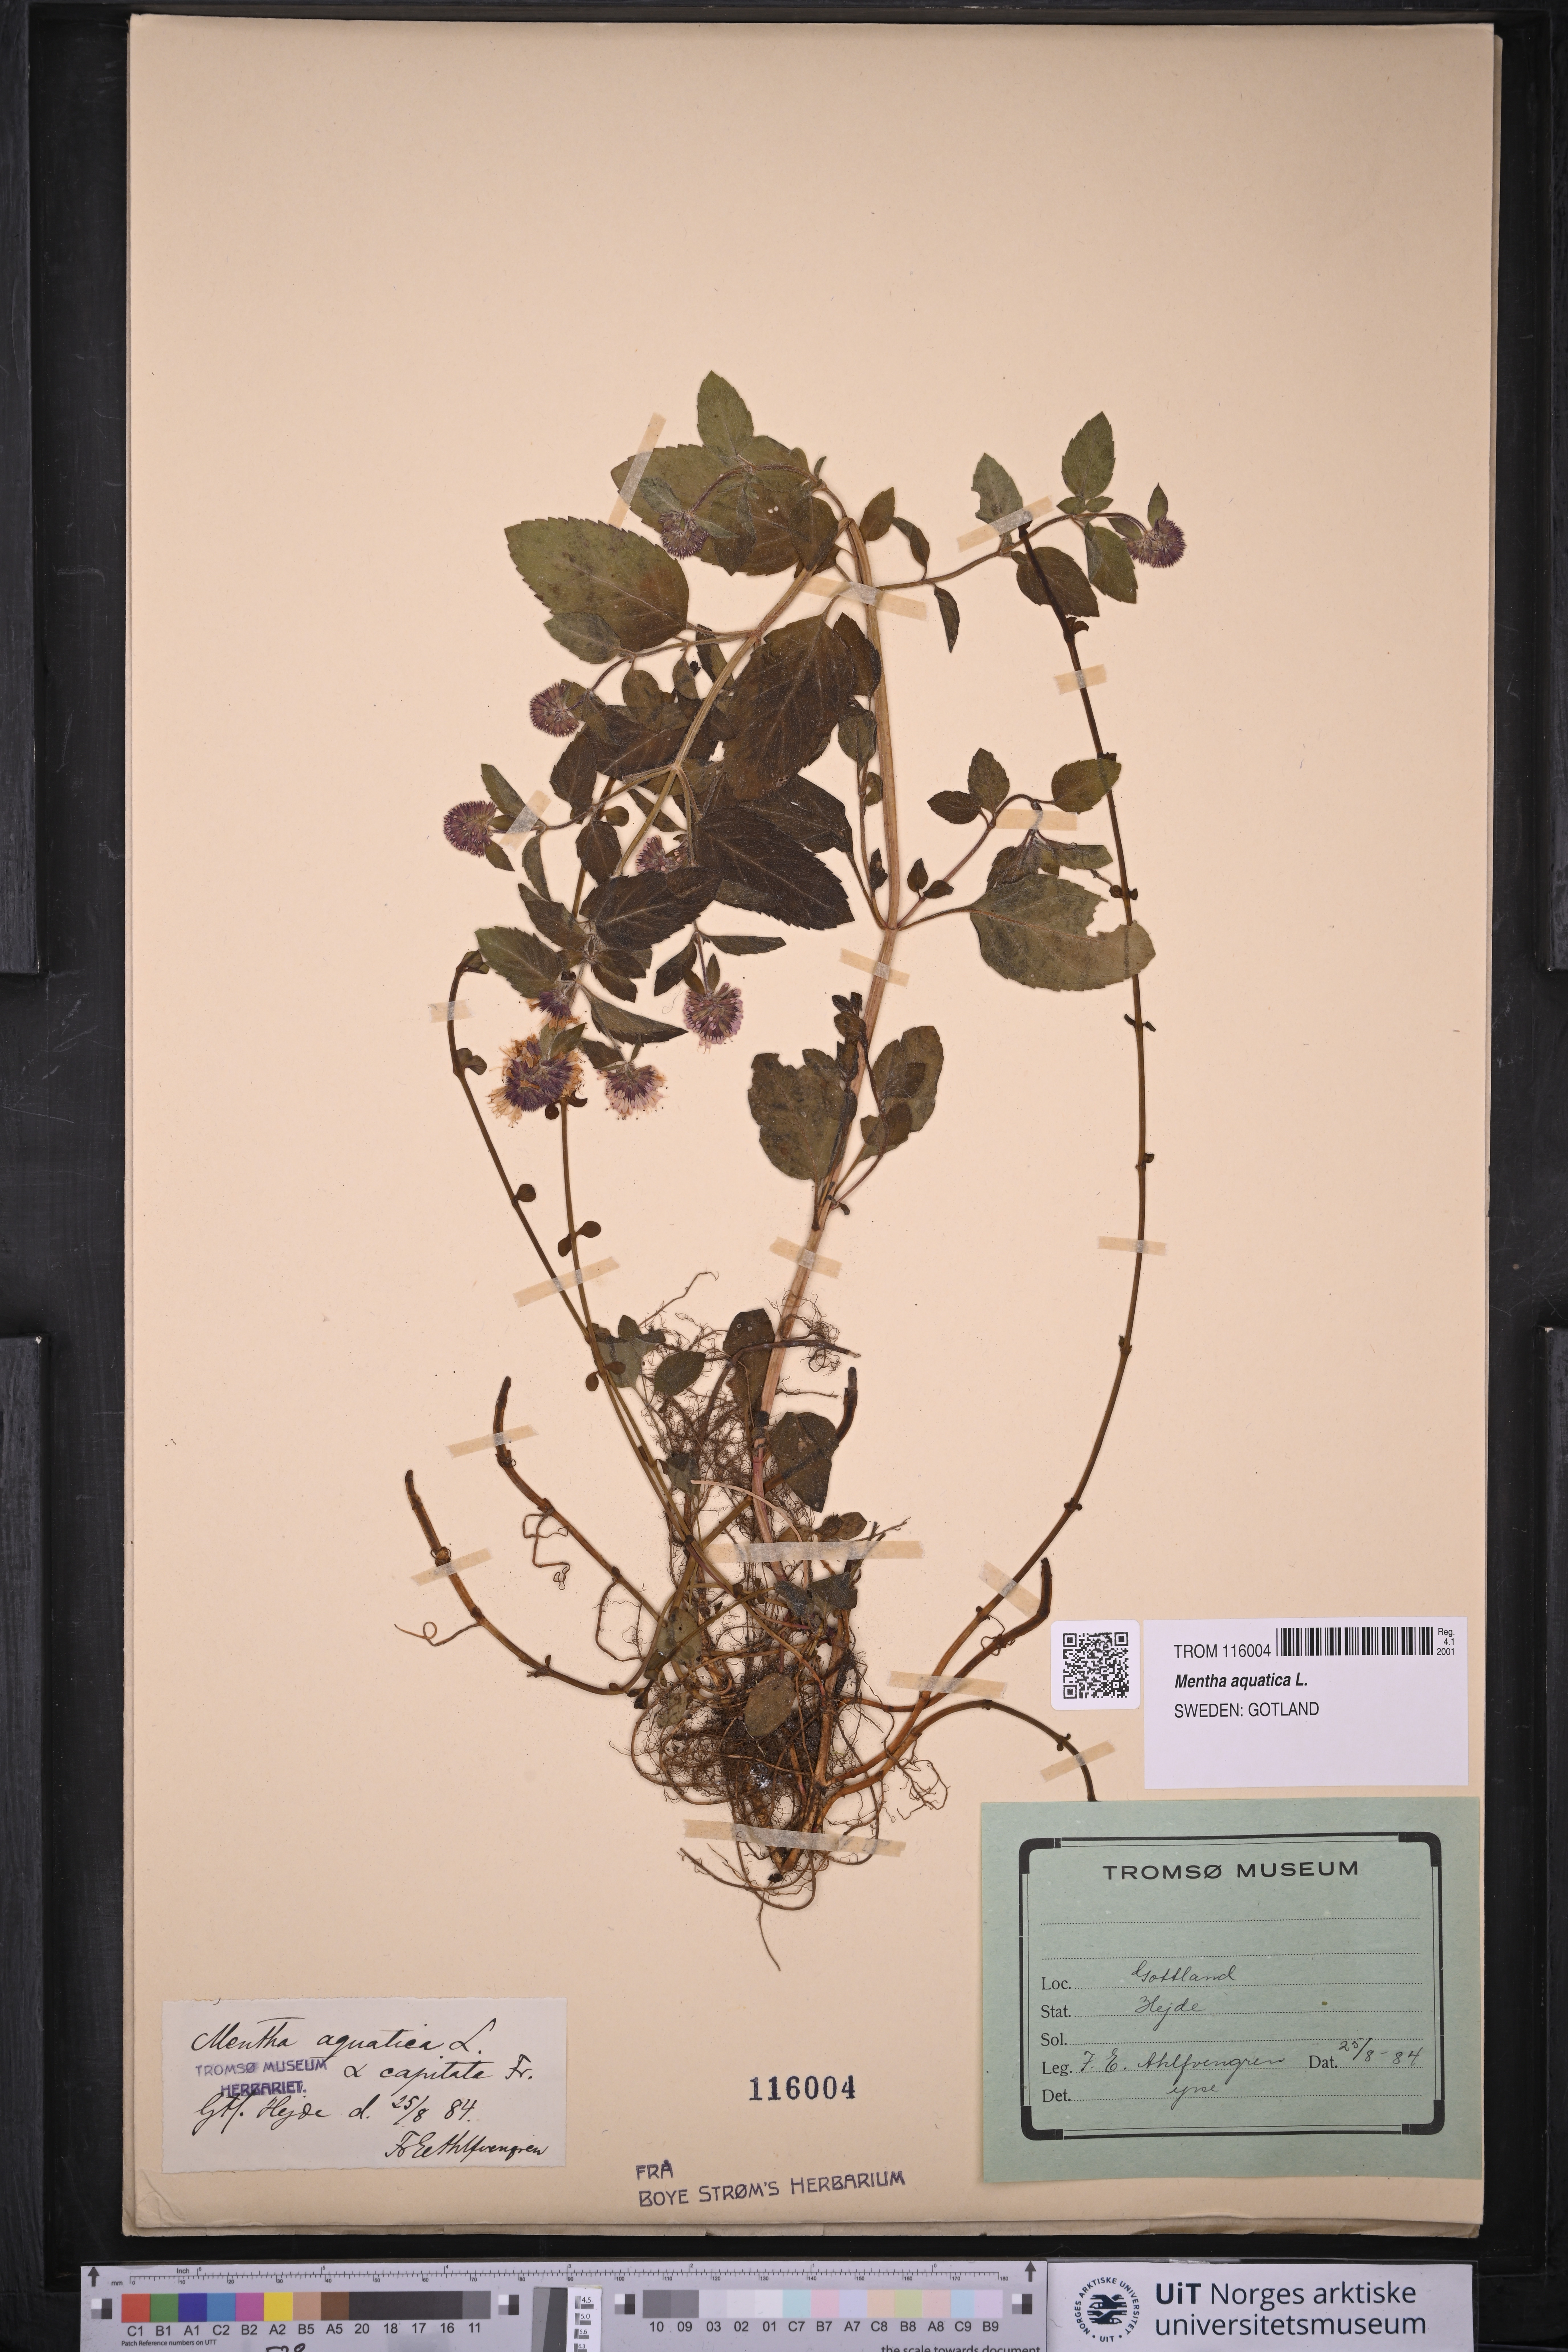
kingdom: Plantae
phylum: Tracheophyta
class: Magnoliopsida
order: Lamiales
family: Lamiaceae
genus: Mentha
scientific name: Mentha aquatica
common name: Water mint
